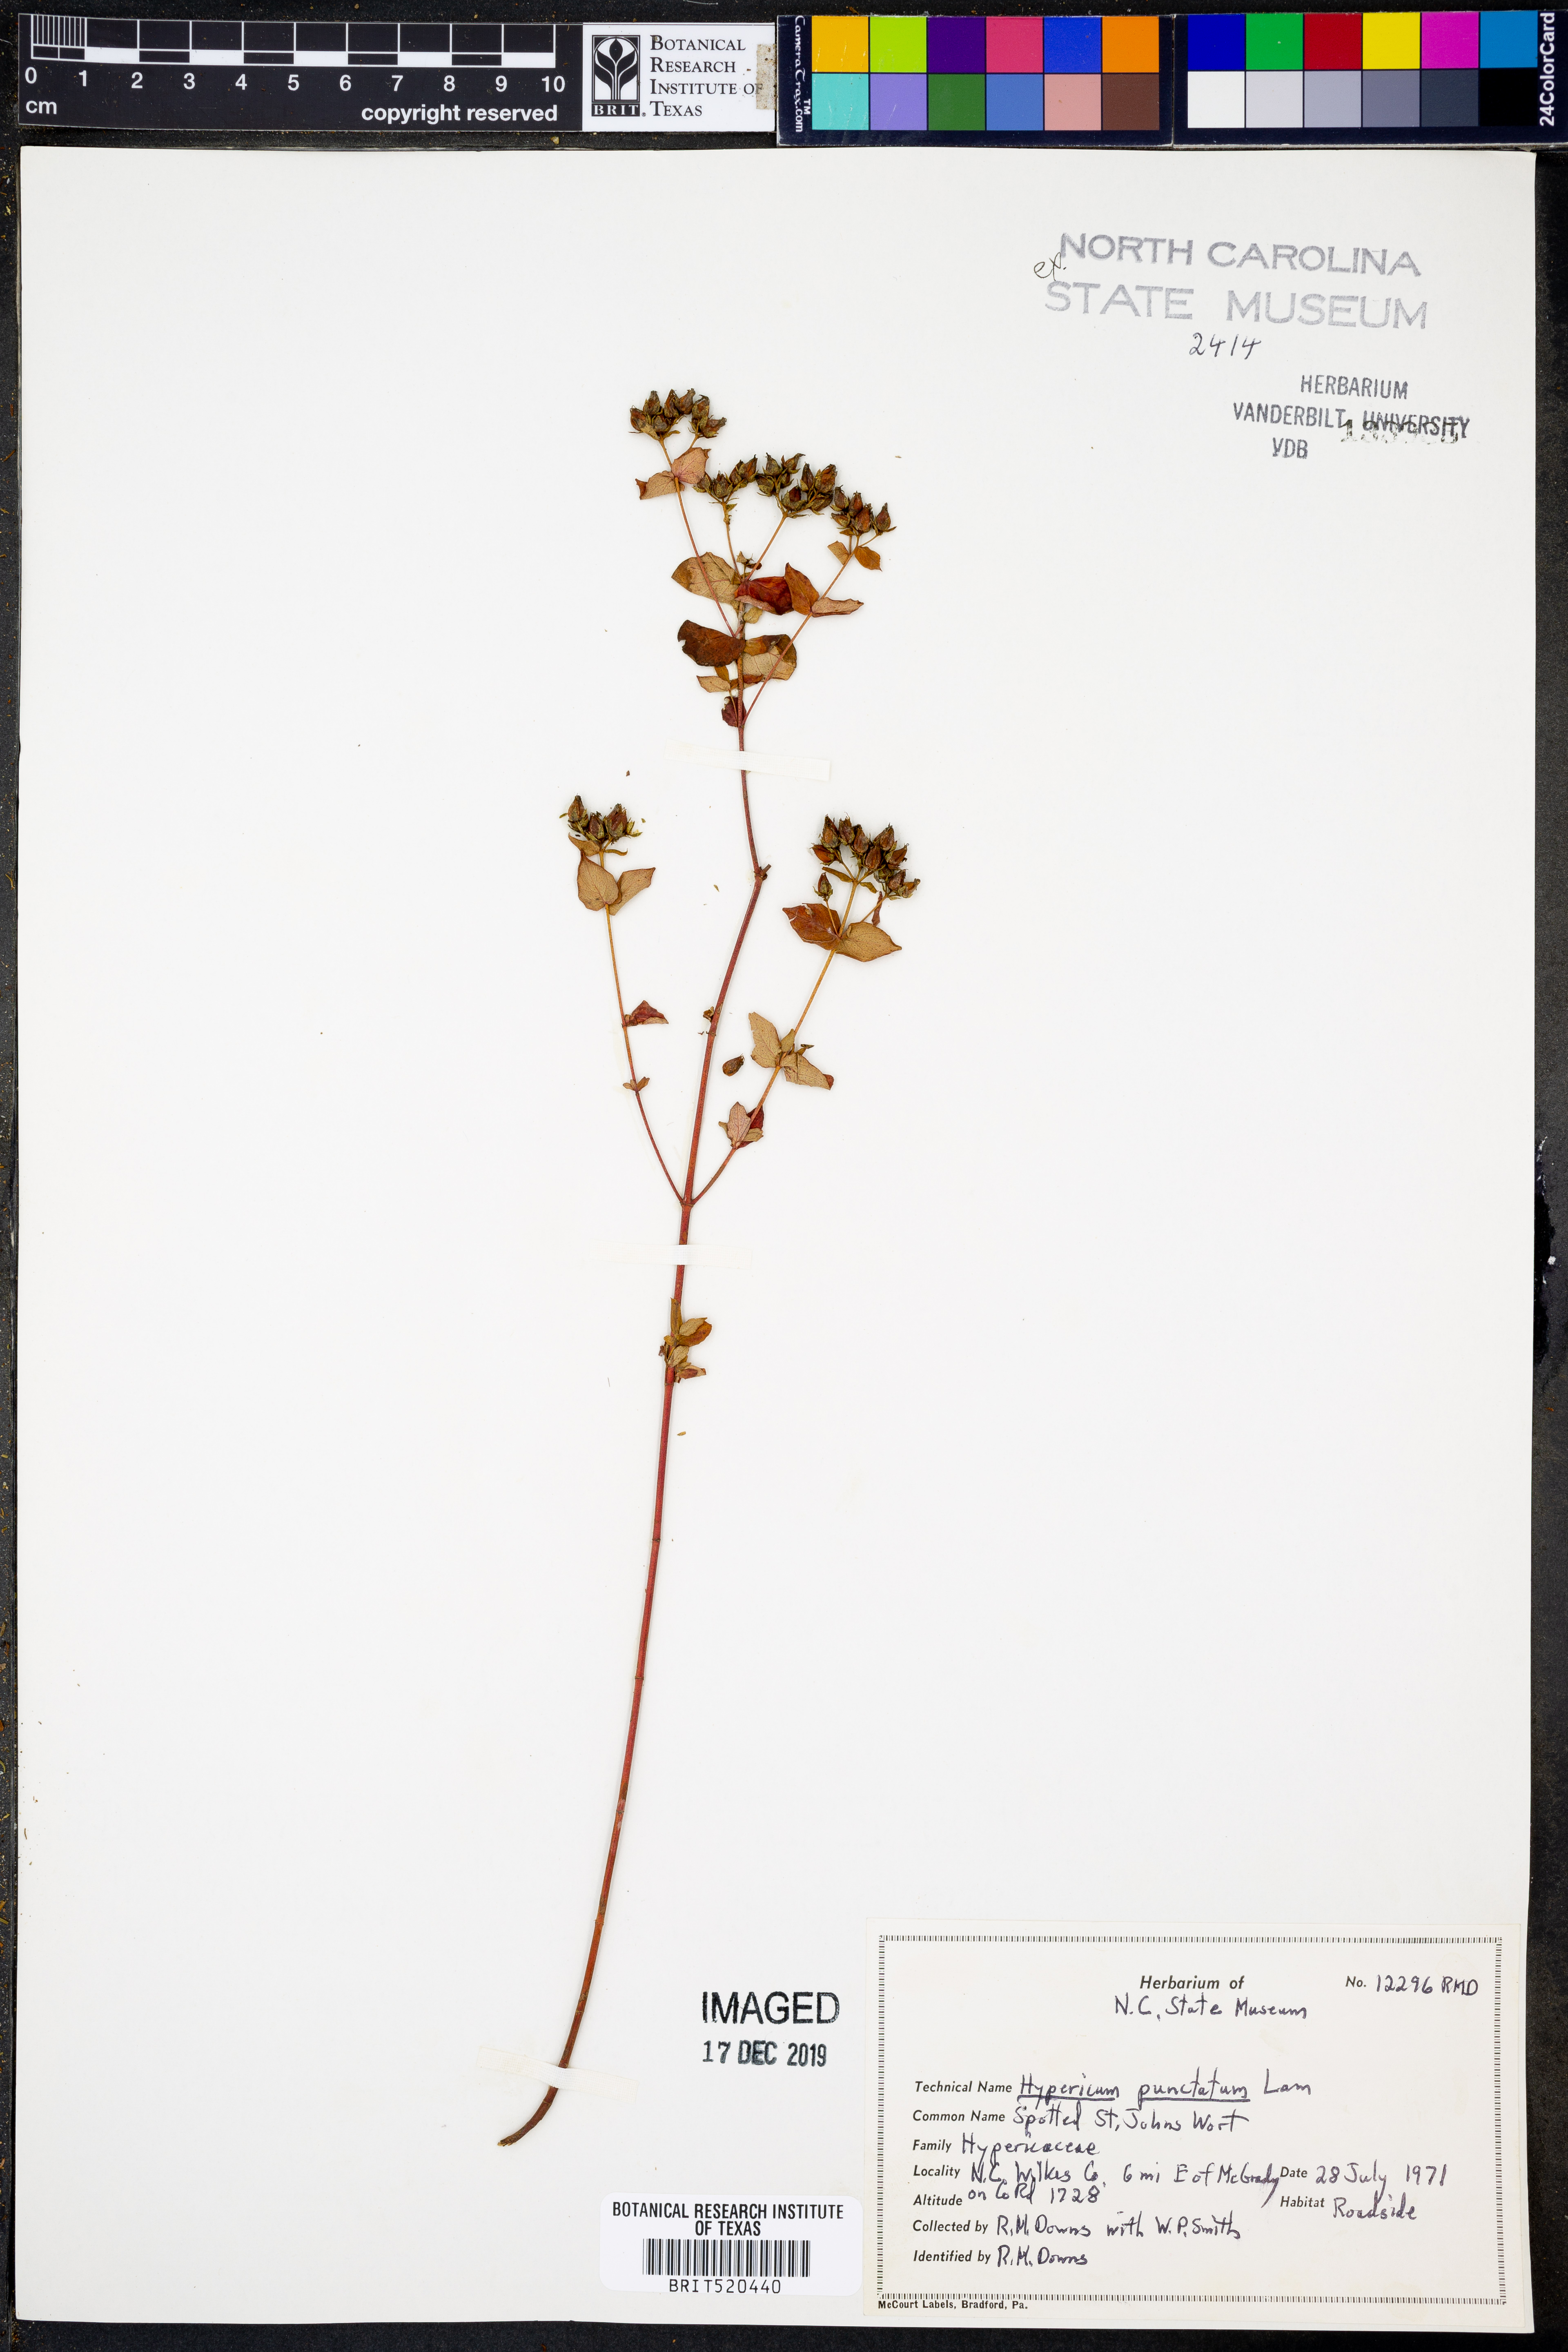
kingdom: Plantae
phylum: Tracheophyta
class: Magnoliopsida
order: Malpighiales
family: Hypericaceae
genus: Hypericum
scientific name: Hypericum punctatum
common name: Spotted st. john's-wort
